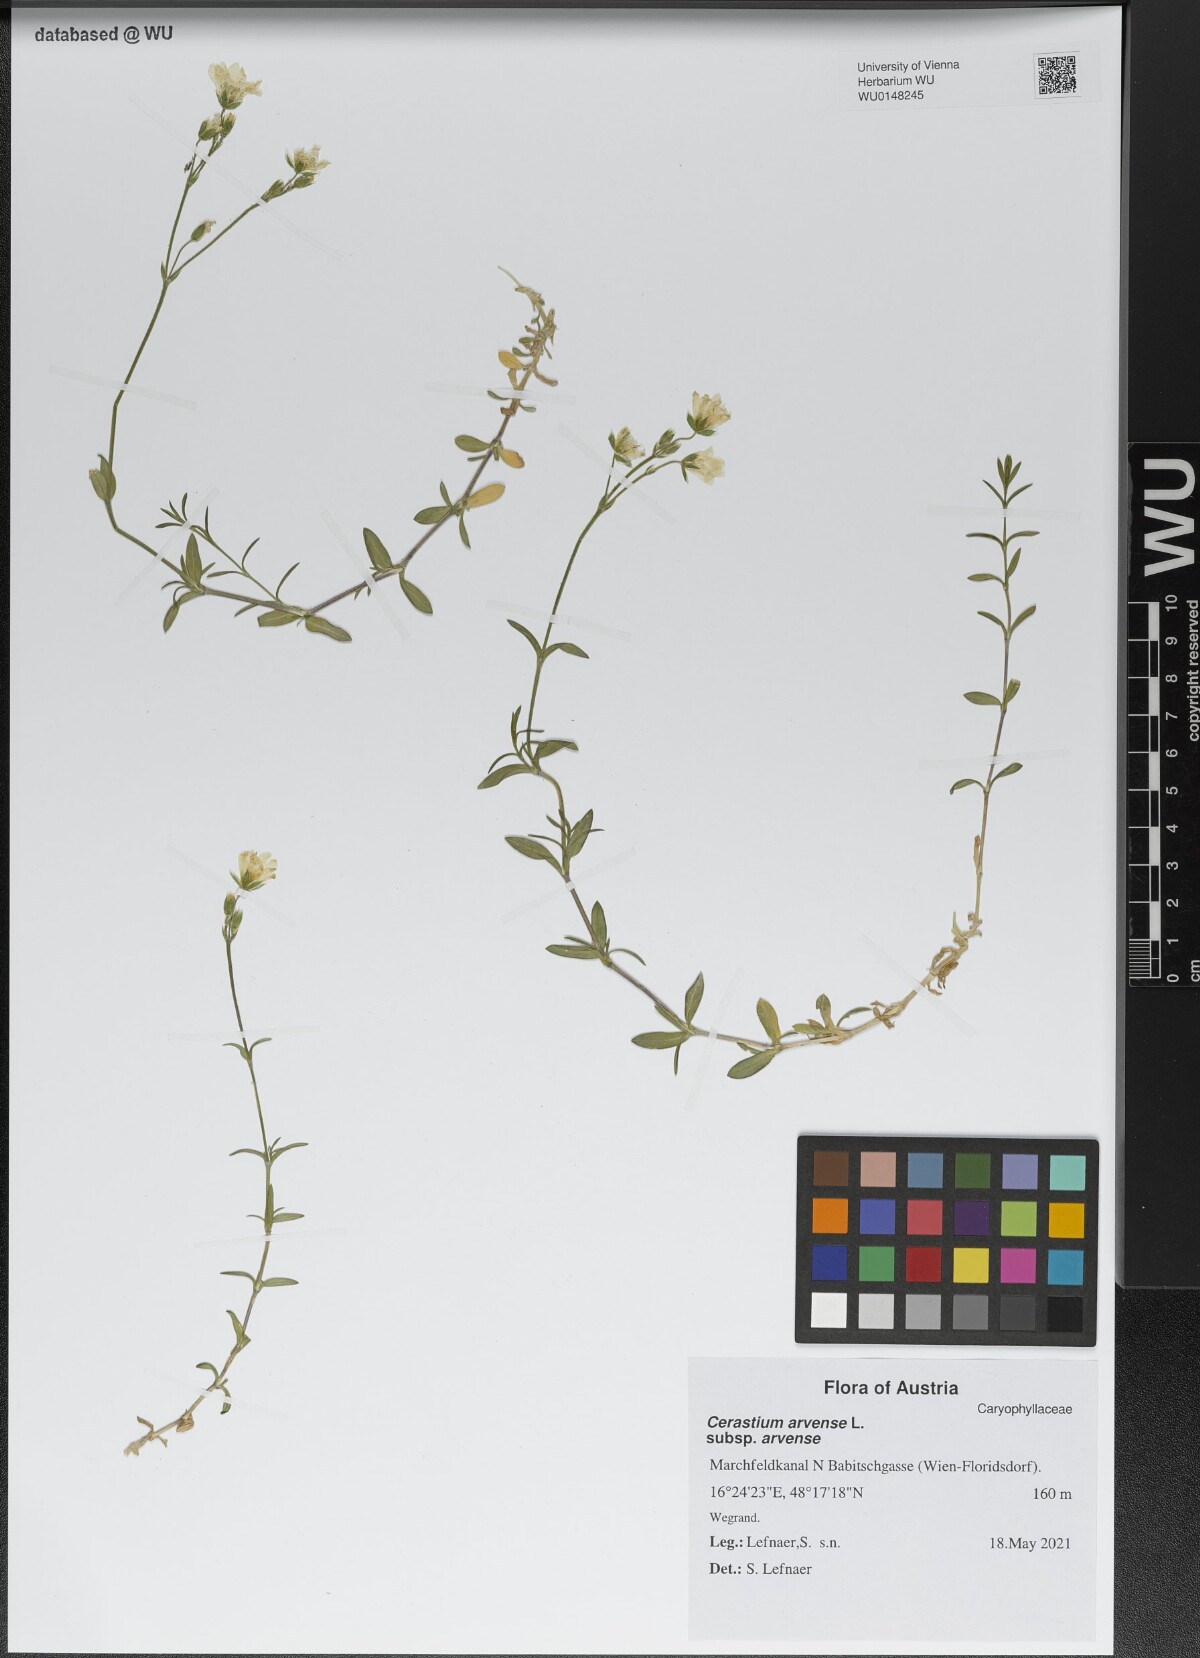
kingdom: Plantae
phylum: Tracheophyta
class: Magnoliopsida
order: Caryophyllales
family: Caryophyllaceae
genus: Cerastium
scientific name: Cerastium arvense
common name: Field mouse-ear
